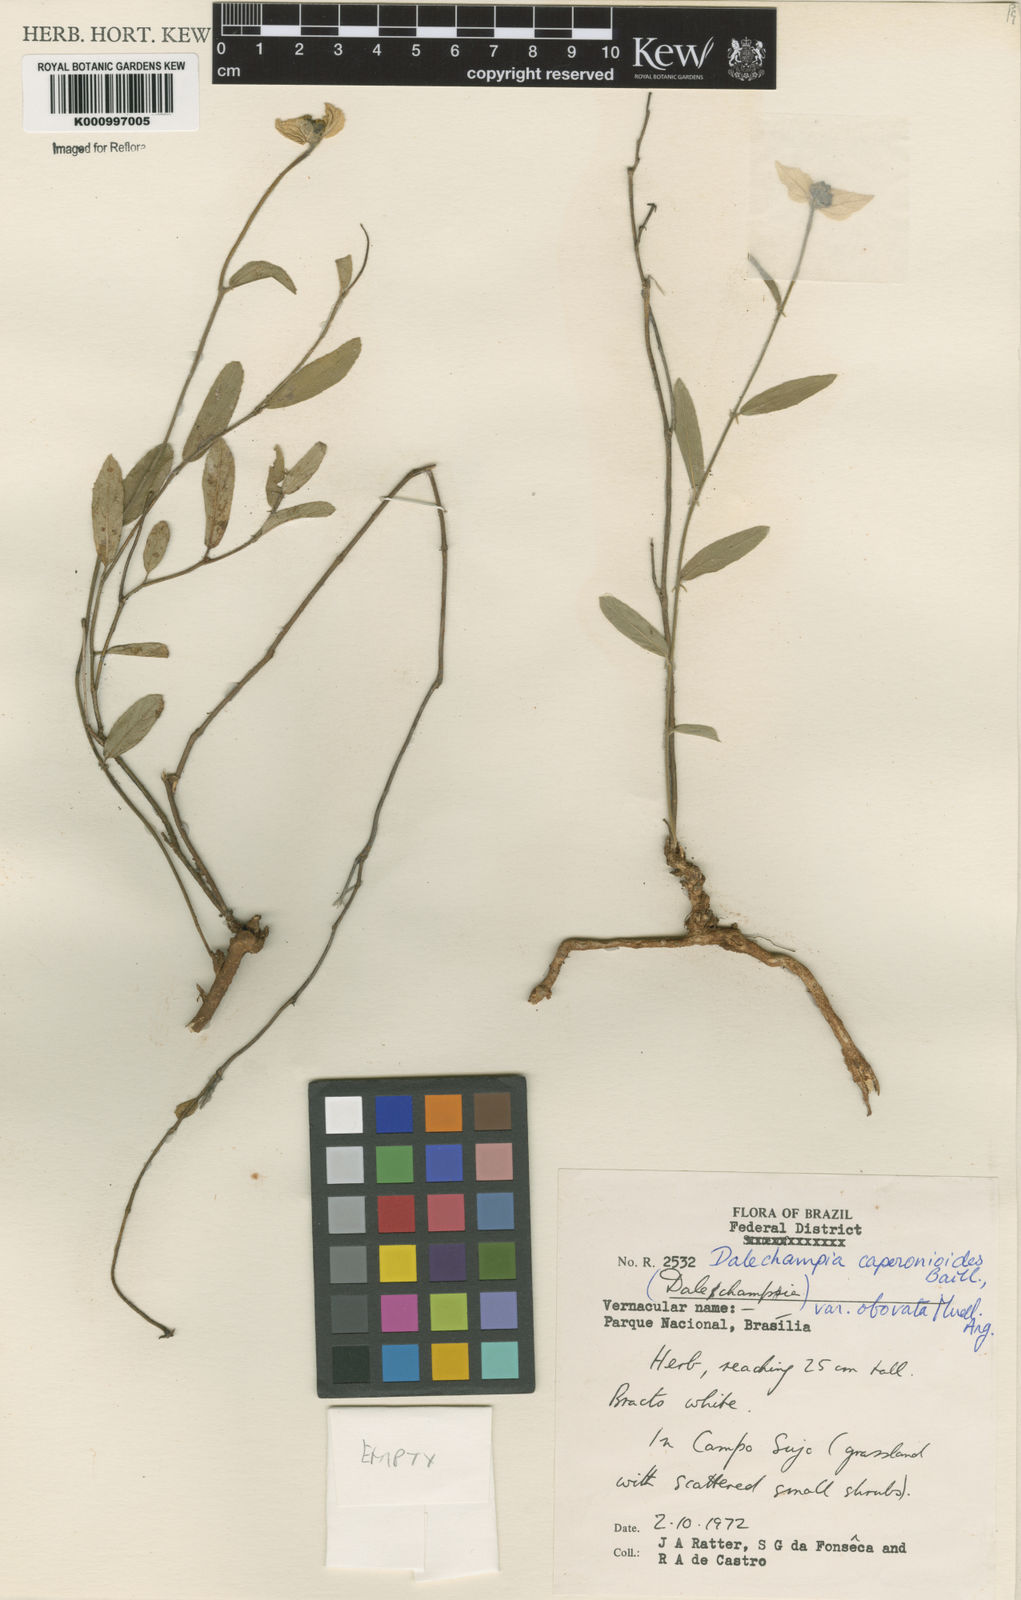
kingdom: Plantae
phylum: Tracheophyta
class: Magnoliopsida
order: Malpighiales
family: Euphorbiaceae
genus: Dalechampia
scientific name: Dalechampia caperonioides
